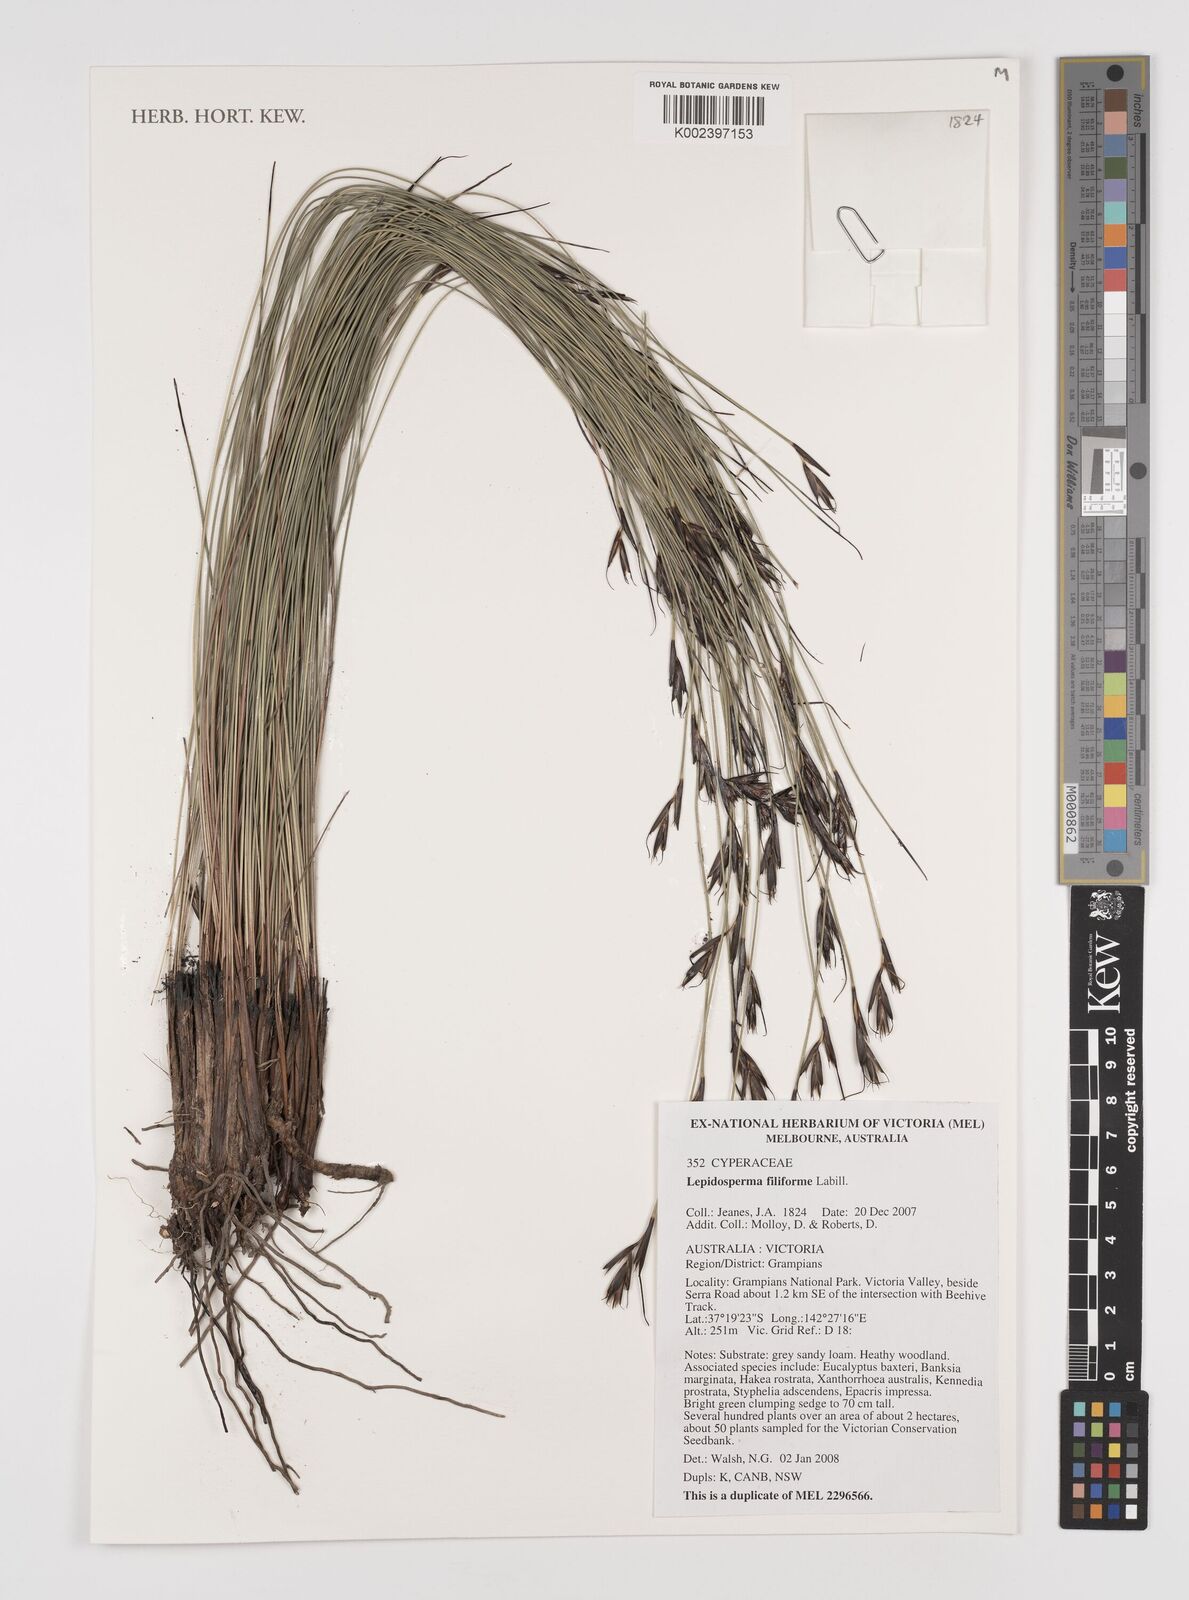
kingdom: Plantae
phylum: Tracheophyta
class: Liliopsida
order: Poales
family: Cyperaceae
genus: Lepidosperma
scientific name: Lepidosperma filiforme
